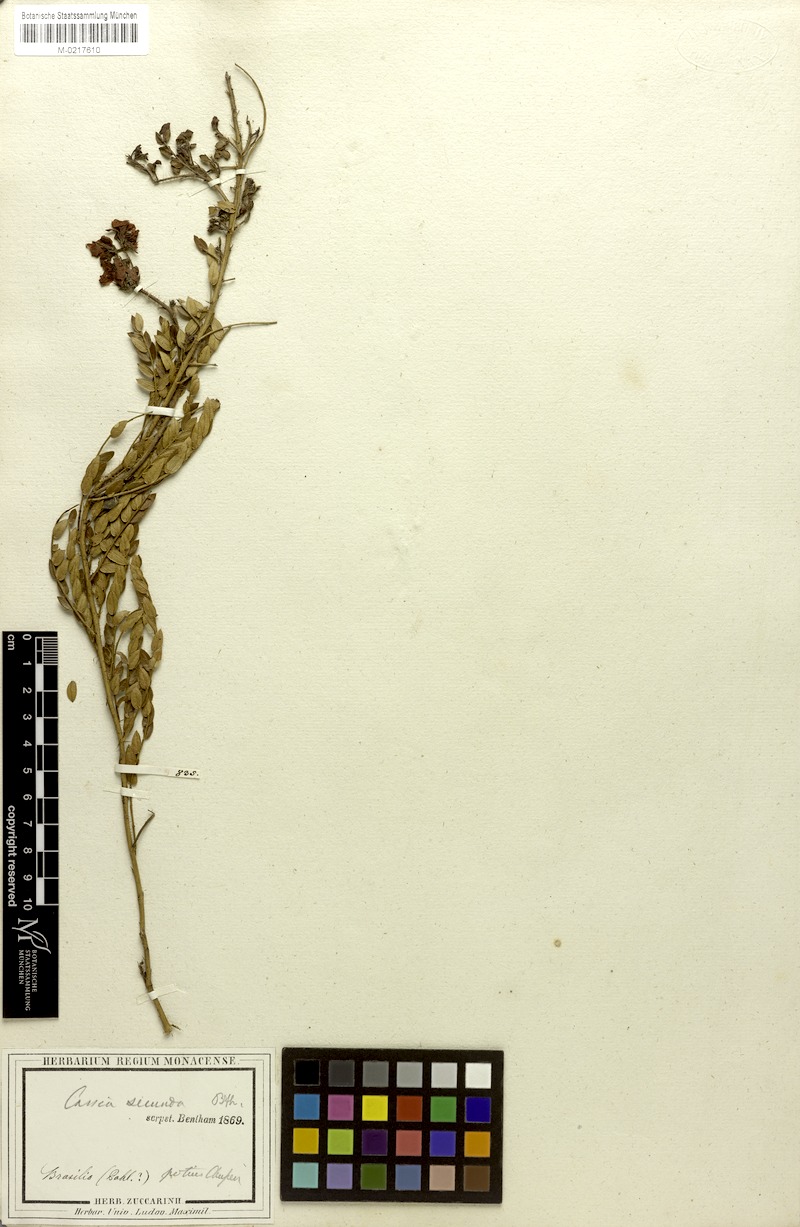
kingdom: Plantae
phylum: Tracheophyta
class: Magnoliopsida
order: Fabales
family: Fabaceae
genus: Chamaecrista
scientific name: Chamaecrista secunda
